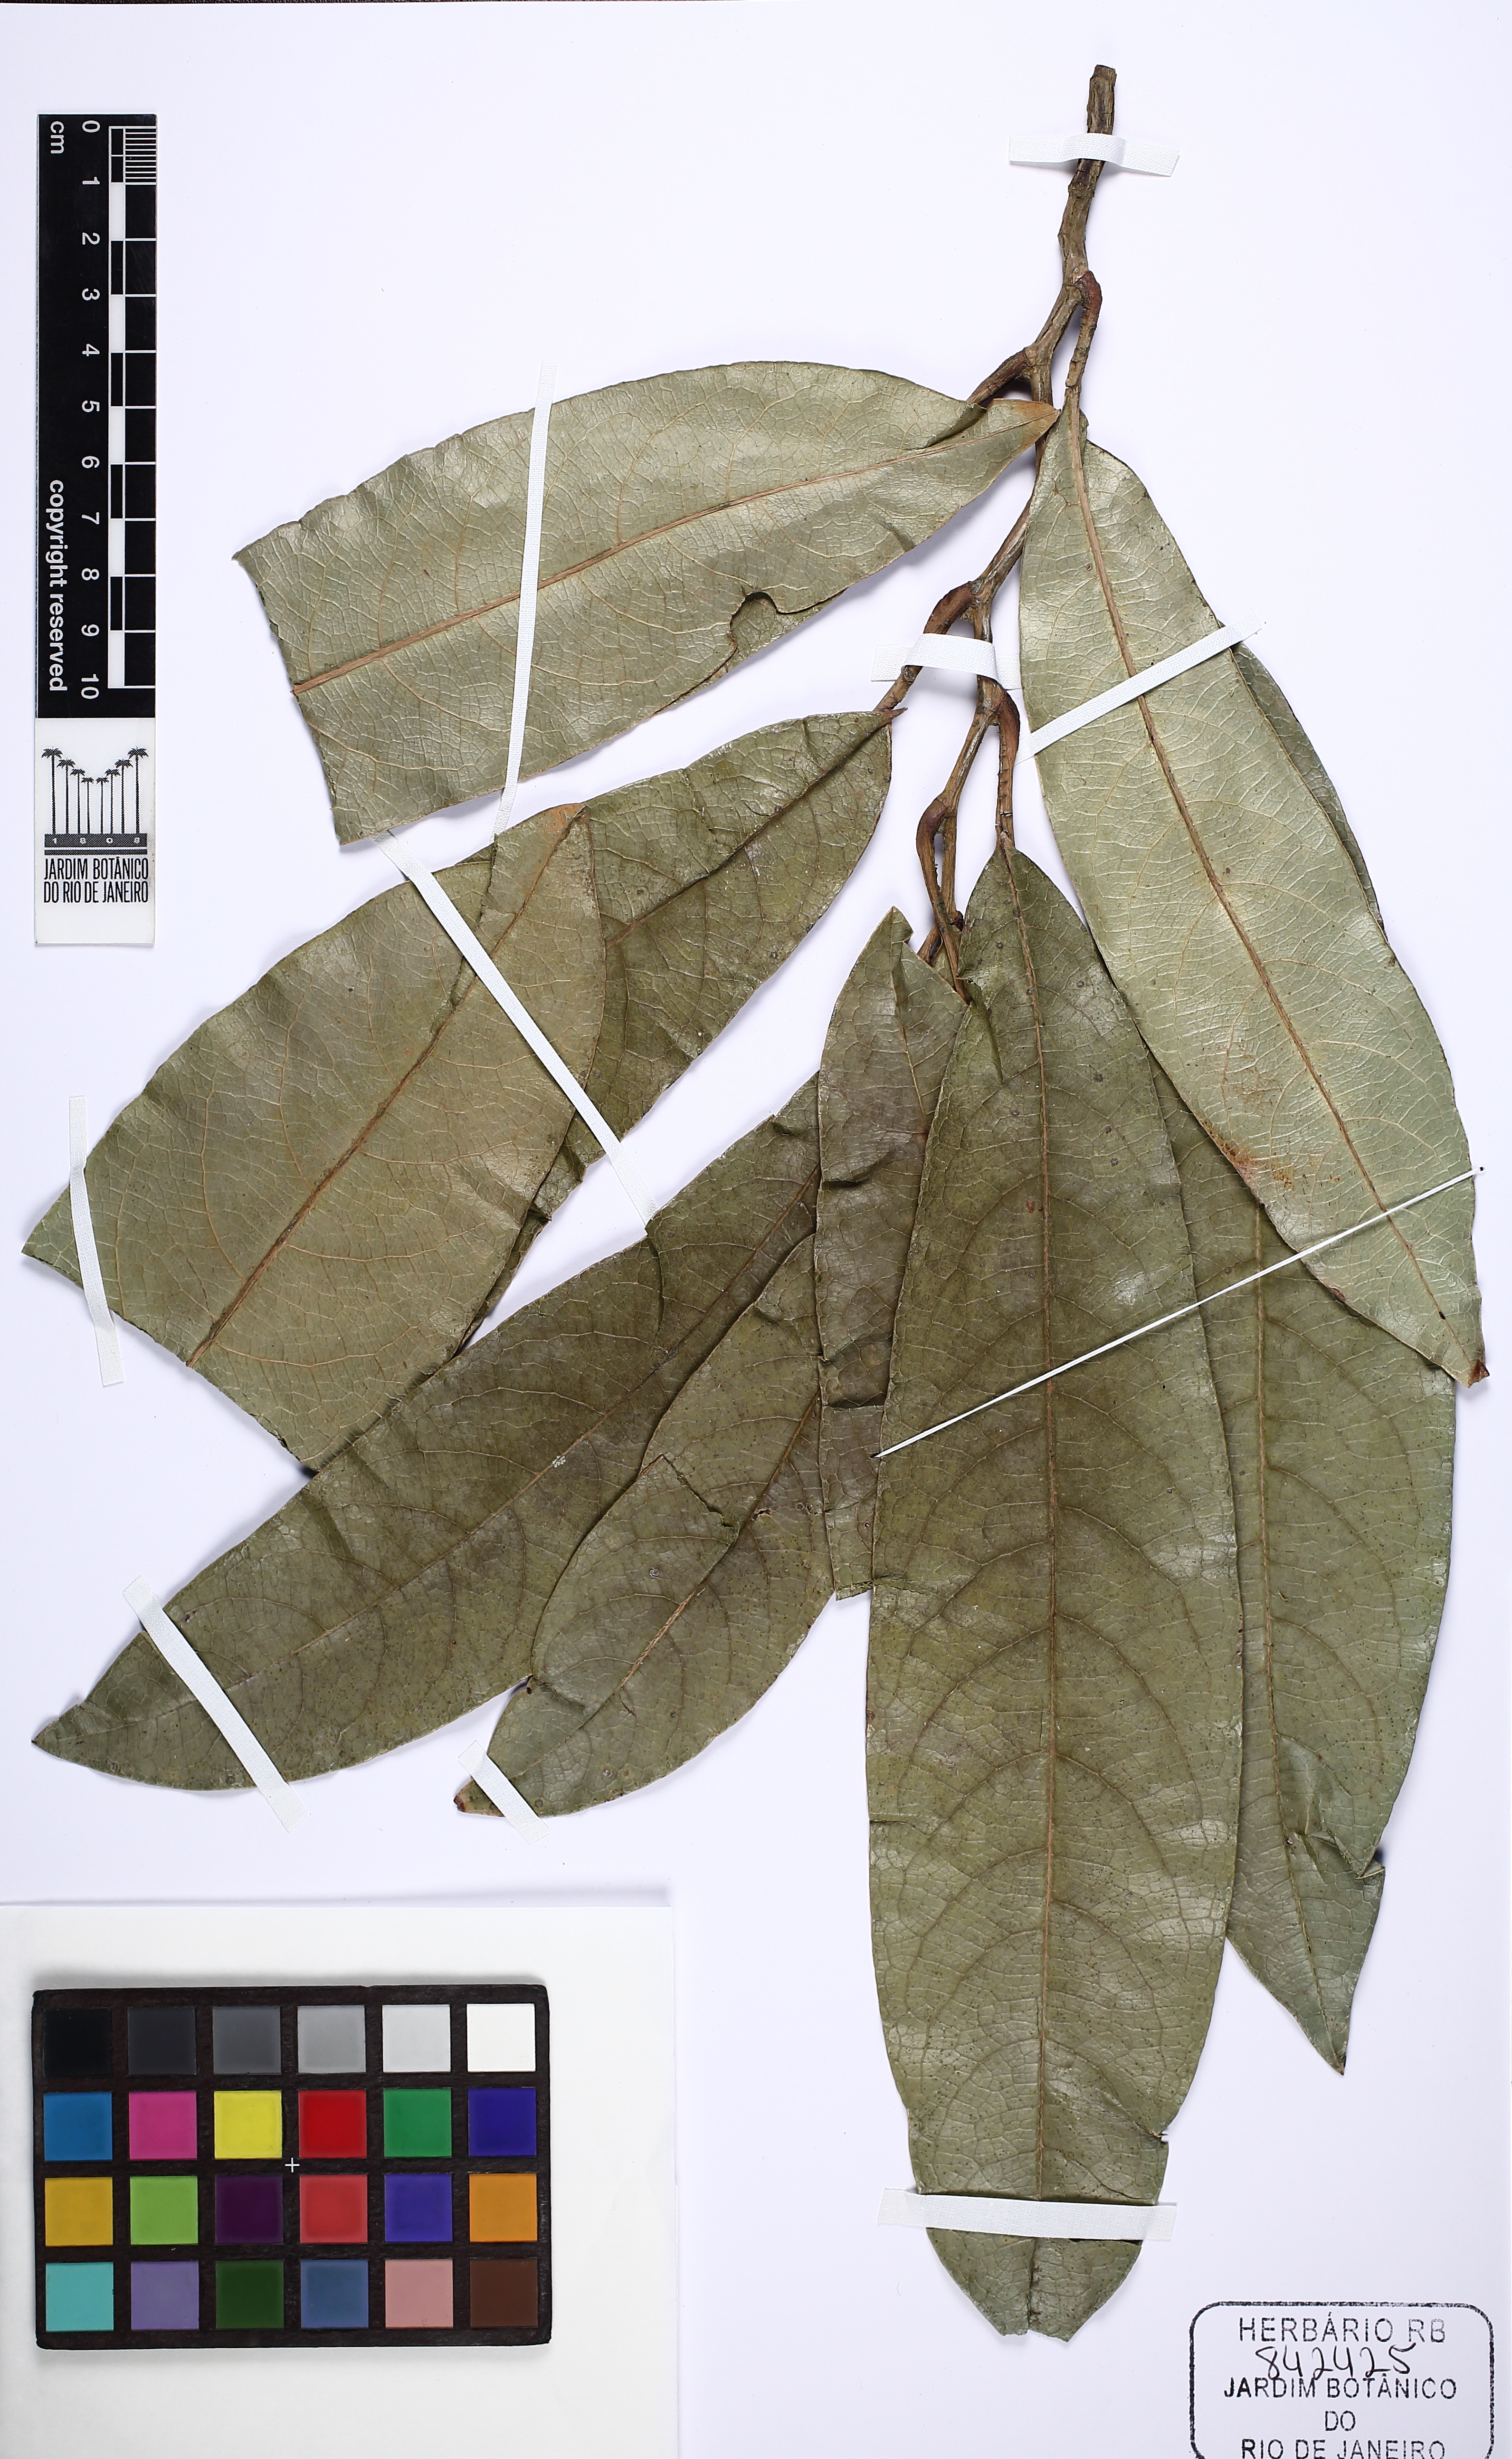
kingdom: Plantae
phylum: Tracheophyta
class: Magnoliopsida
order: Dilleniales
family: Dilleniaceae
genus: Davilla
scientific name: Davilla latifolia
